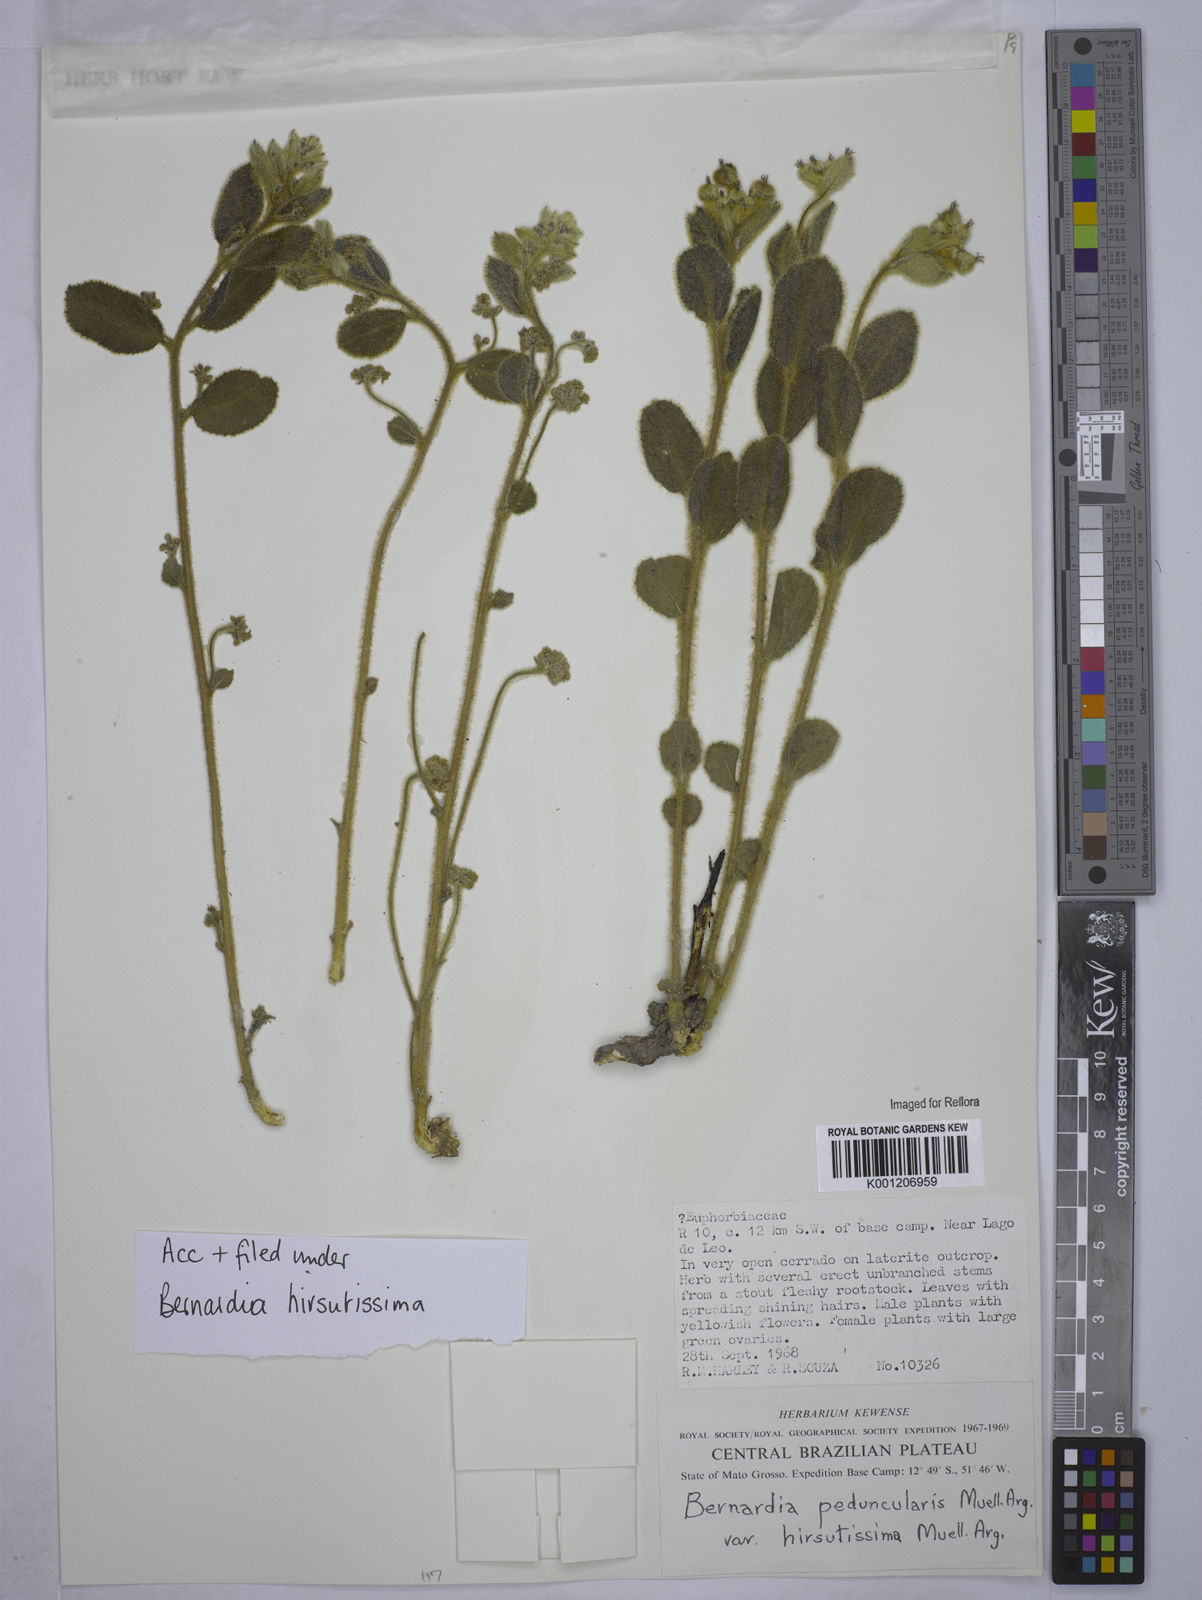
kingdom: Plantae
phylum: Tracheophyta
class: Magnoliopsida
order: Malpighiales
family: Euphorbiaceae
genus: Bernardia
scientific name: Bernardia
